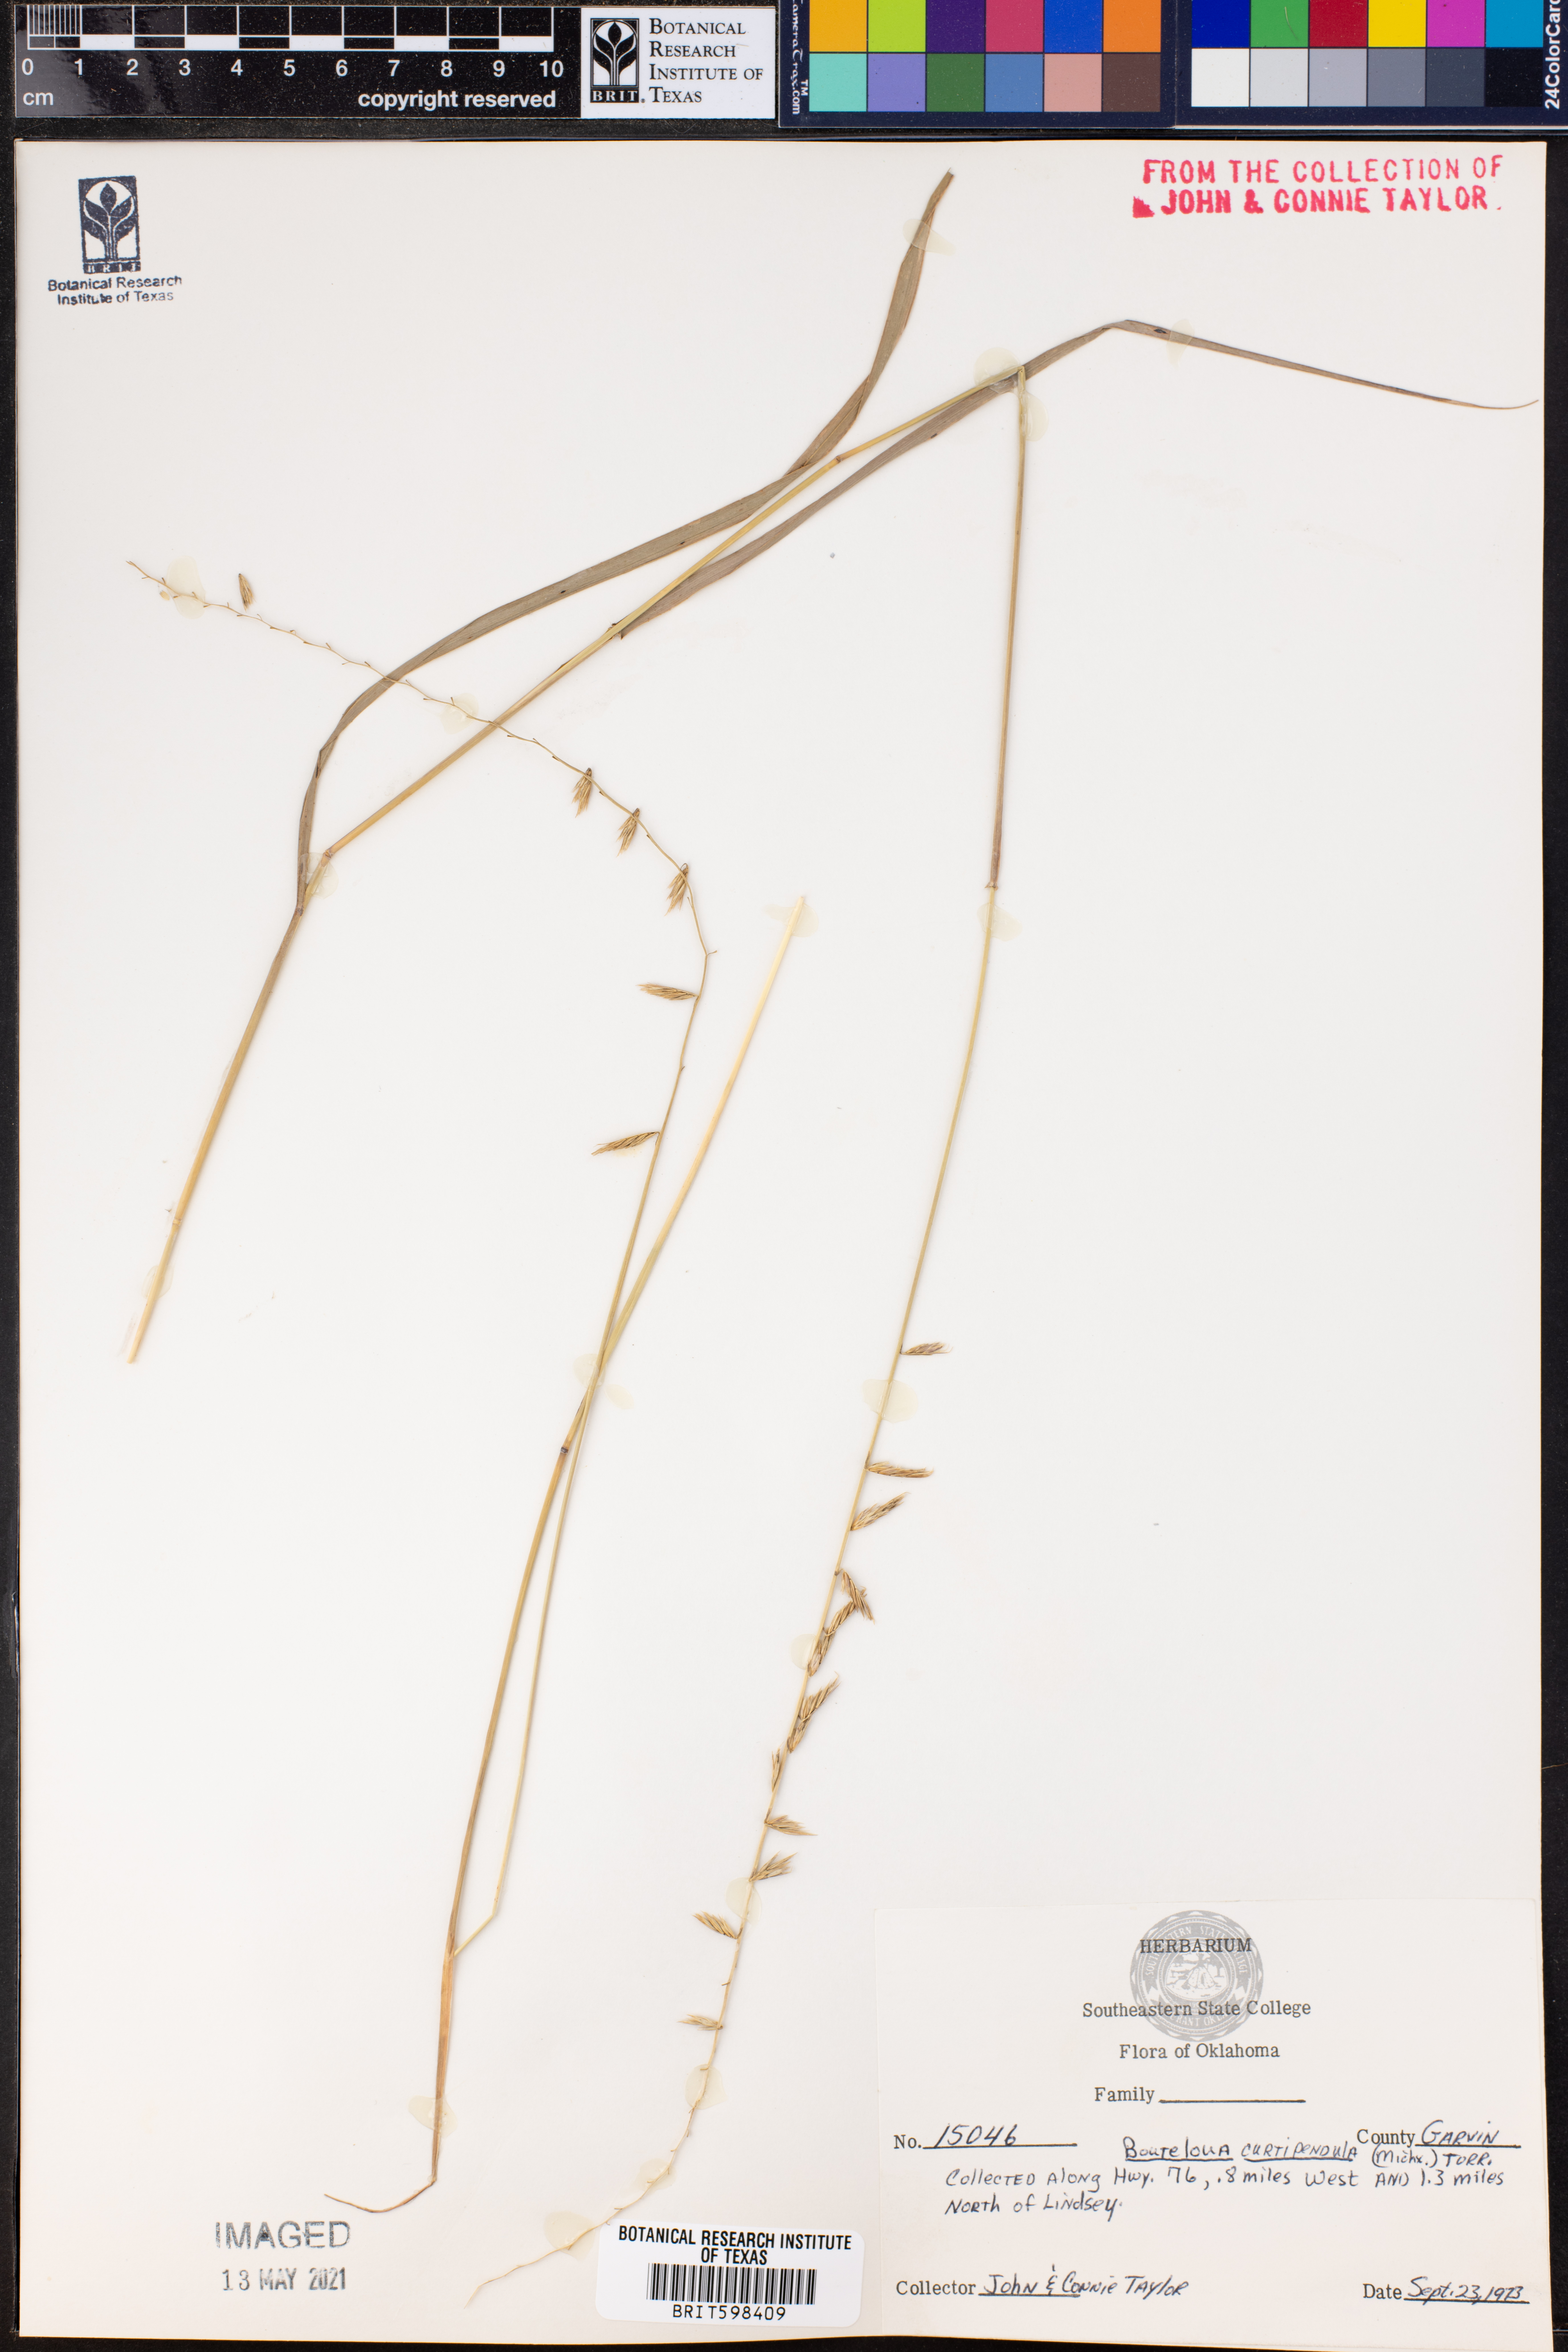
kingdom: Plantae
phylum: Tracheophyta
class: Liliopsida
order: Poales
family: Poaceae
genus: Bouteloua
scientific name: Bouteloua curtipendula
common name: Side-oats grama
